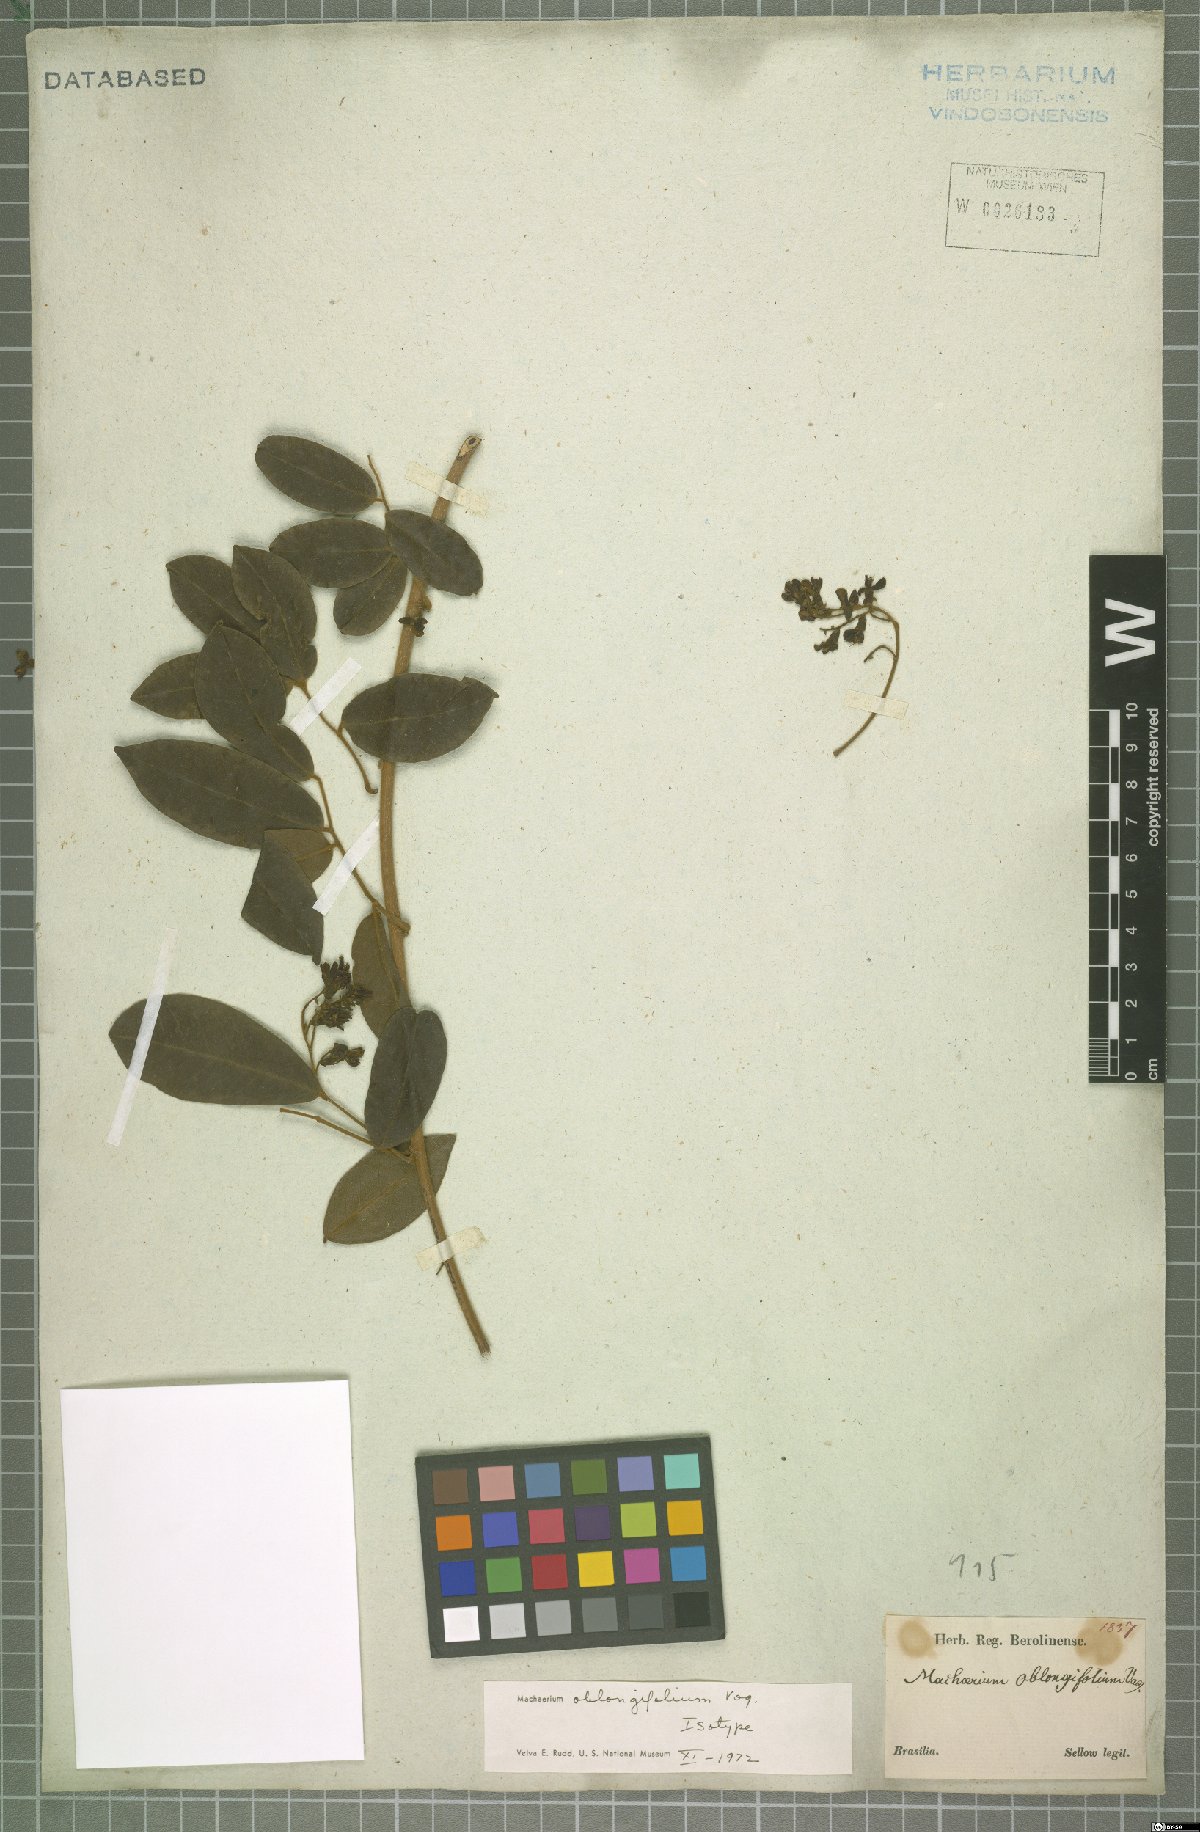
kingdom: Plantae
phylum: Tracheophyta
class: Magnoliopsida
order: Fabales
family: Fabaceae
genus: Machaerium
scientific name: Machaerium oblongifolium
